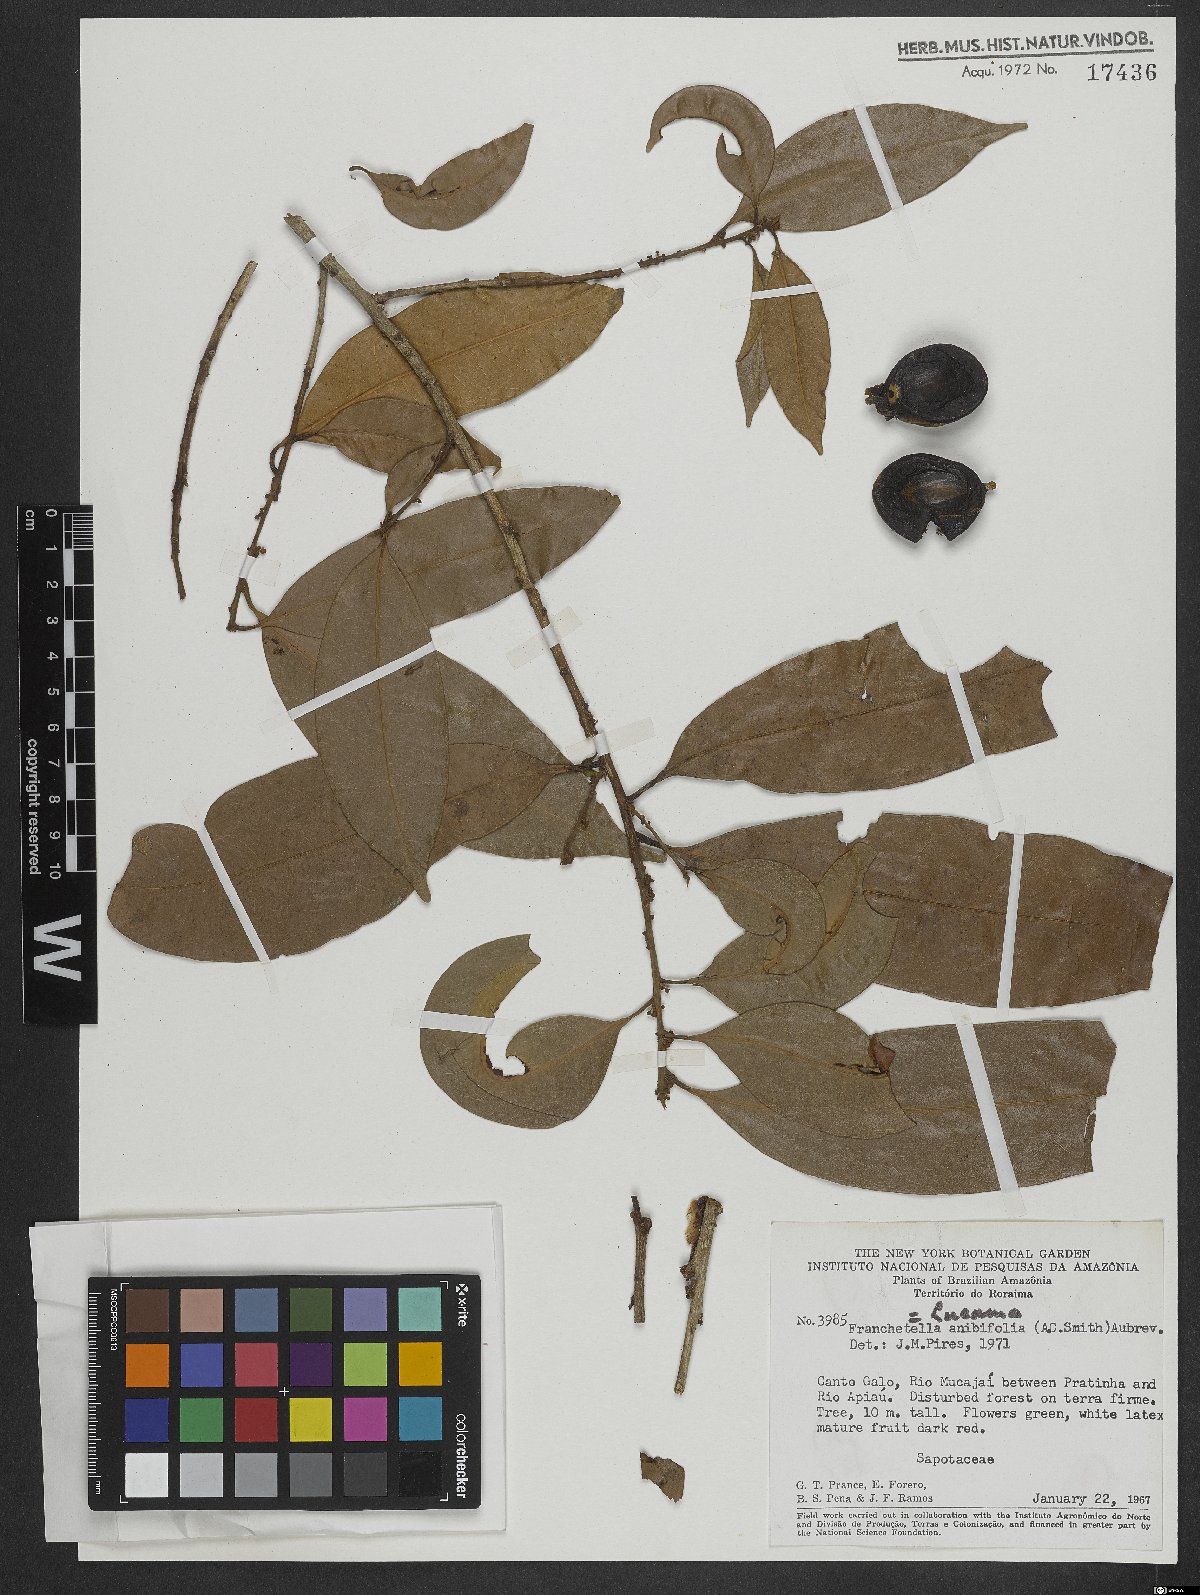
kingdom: Plantae
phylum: Tracheophyta
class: Magnoliopsida
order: Ericales
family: Sapotaceae
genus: Pouteria
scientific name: Pouteria
